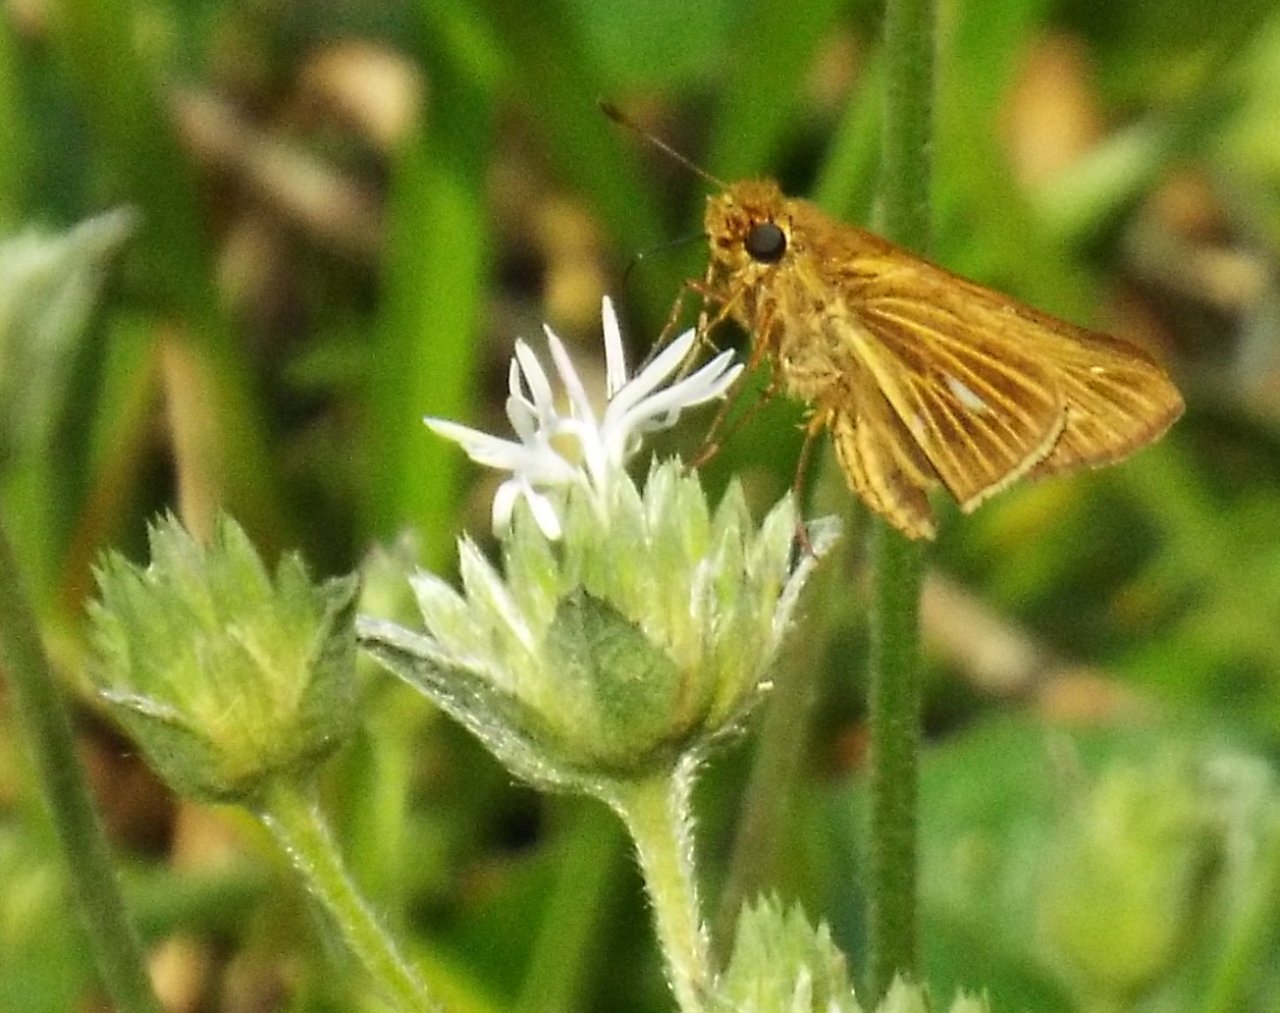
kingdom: Animalia
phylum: Arthropoda
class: Insecta
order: Lepidoptera
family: Hesperiidae
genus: Panoquina
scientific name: Panoquina panoquin
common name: Salt Marsh Skipper
